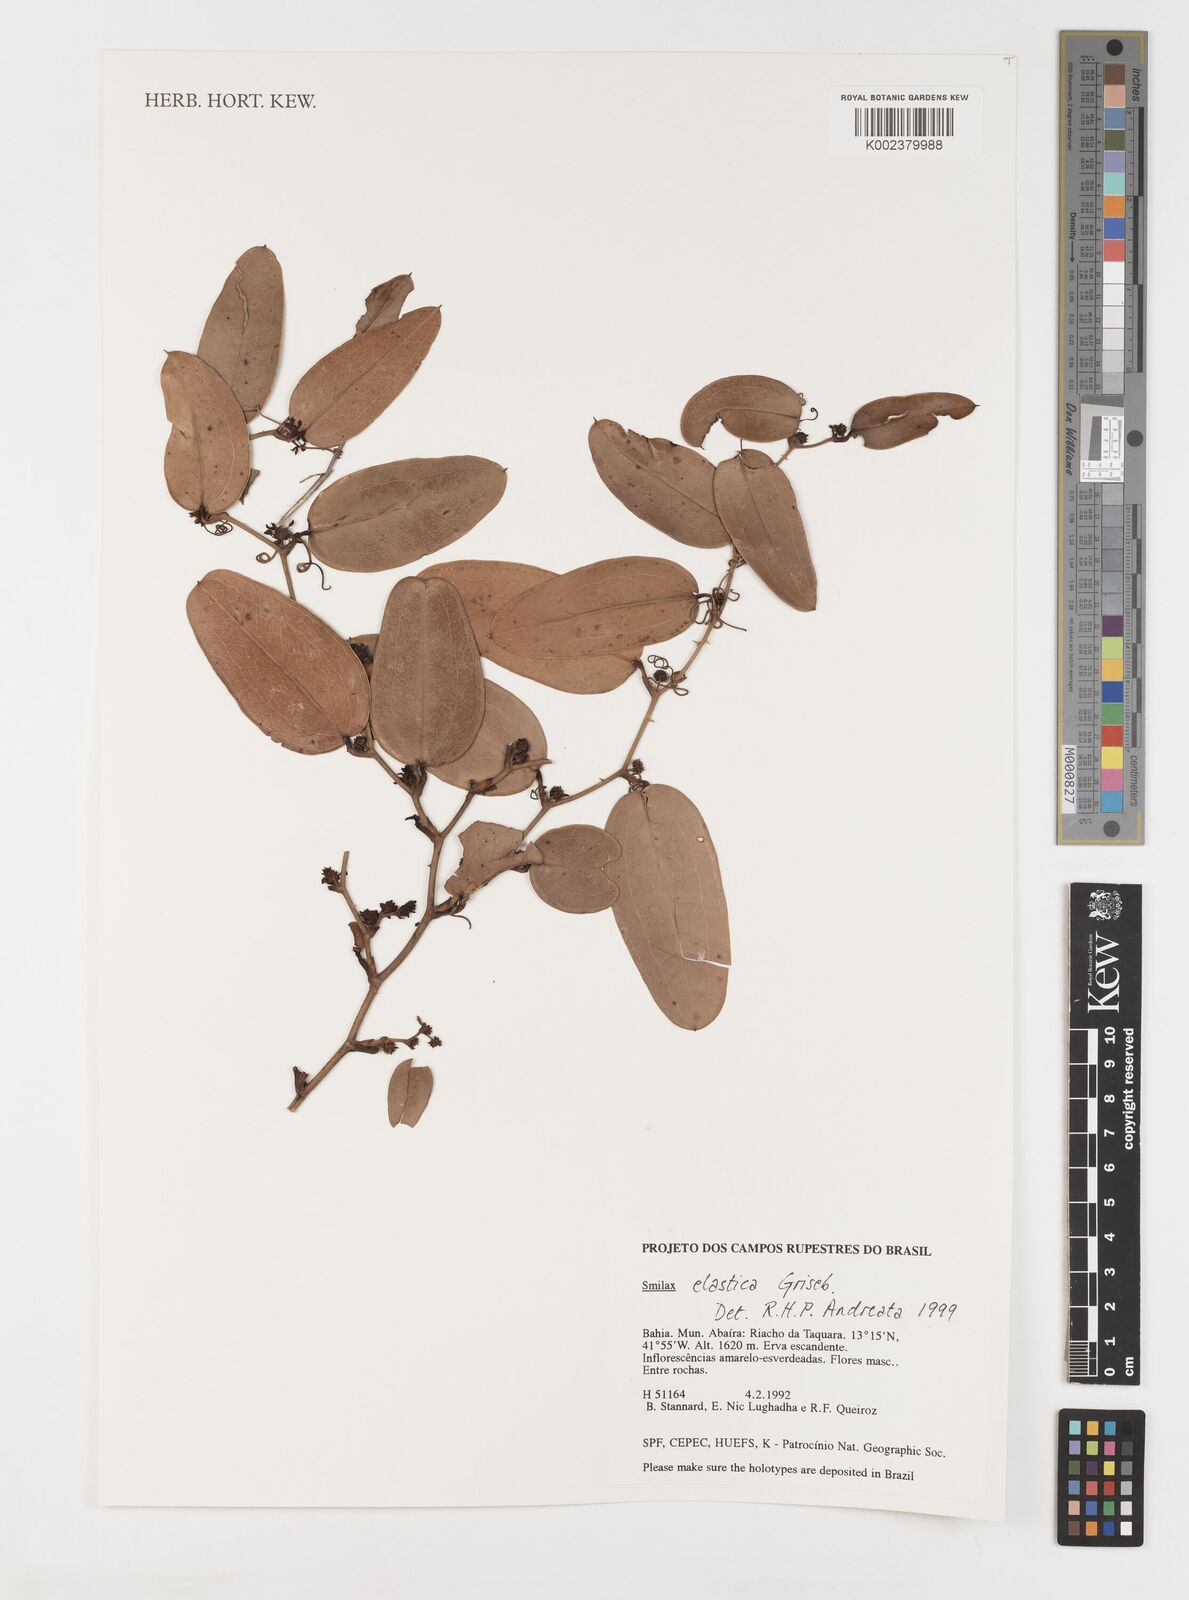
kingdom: Plantae
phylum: Tracheophyta
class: Liliopsida
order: Liliales
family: Smilacaceae
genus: Smilax
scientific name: Smilax elastica
